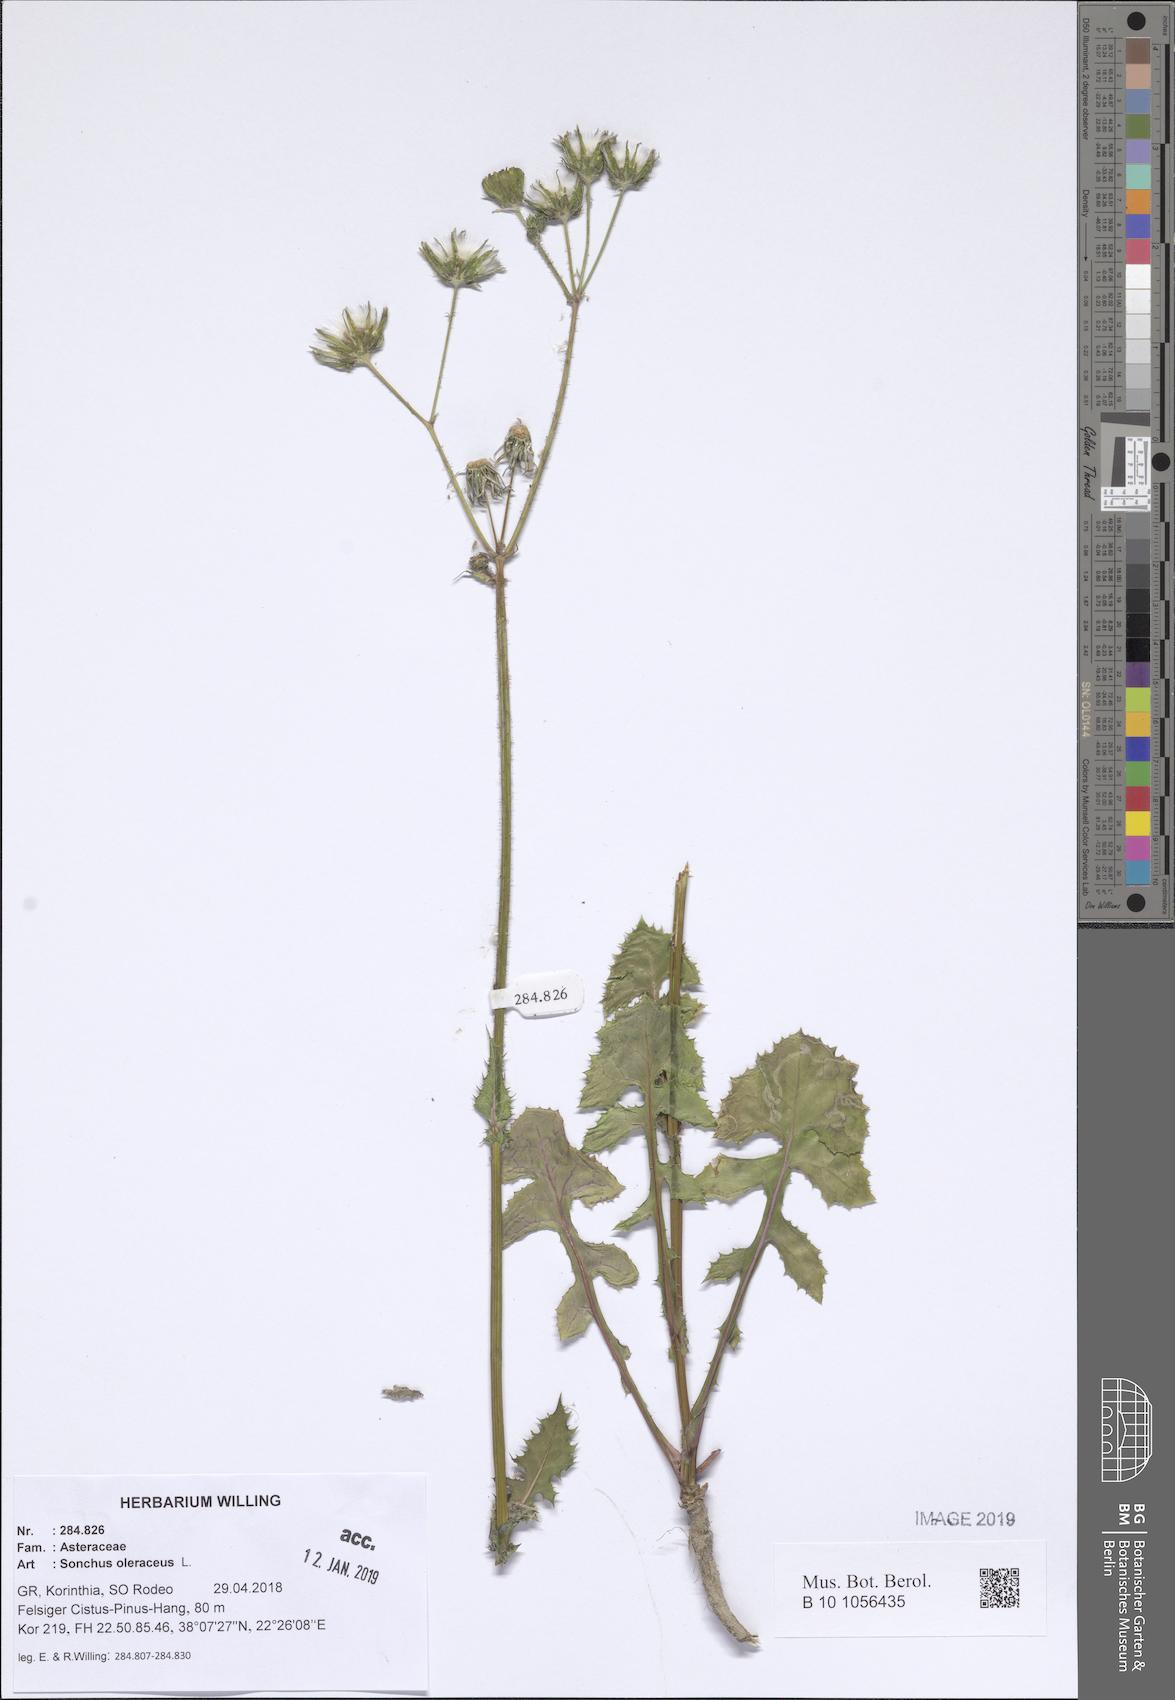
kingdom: Plantae
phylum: Tracheophyta
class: Magnoliopsida
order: Asterales
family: Asteraceae
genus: Sonchus
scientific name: Sonchus oleraceus
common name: Common sowthistle
